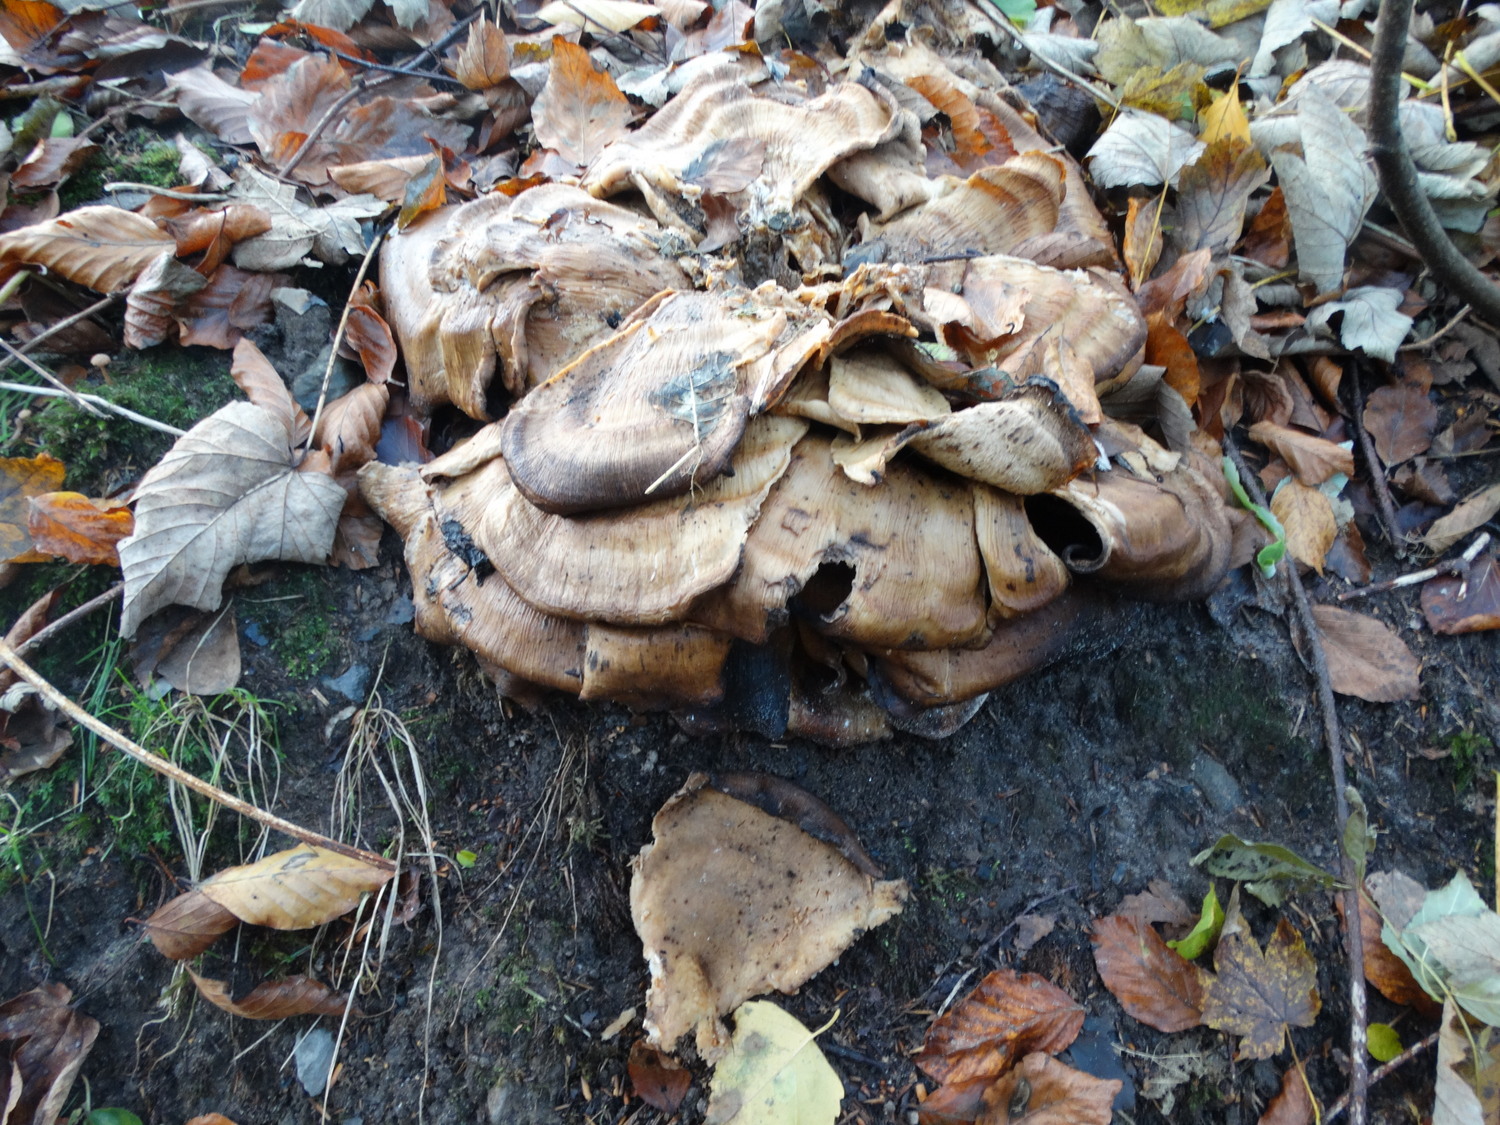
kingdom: Fungi
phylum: Basidiomycota
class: Agaricomycetes
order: Polyporales
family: Meripilaceae
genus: Meripilus
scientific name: Meripilus giganteus
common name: kæmpeporesvamp
